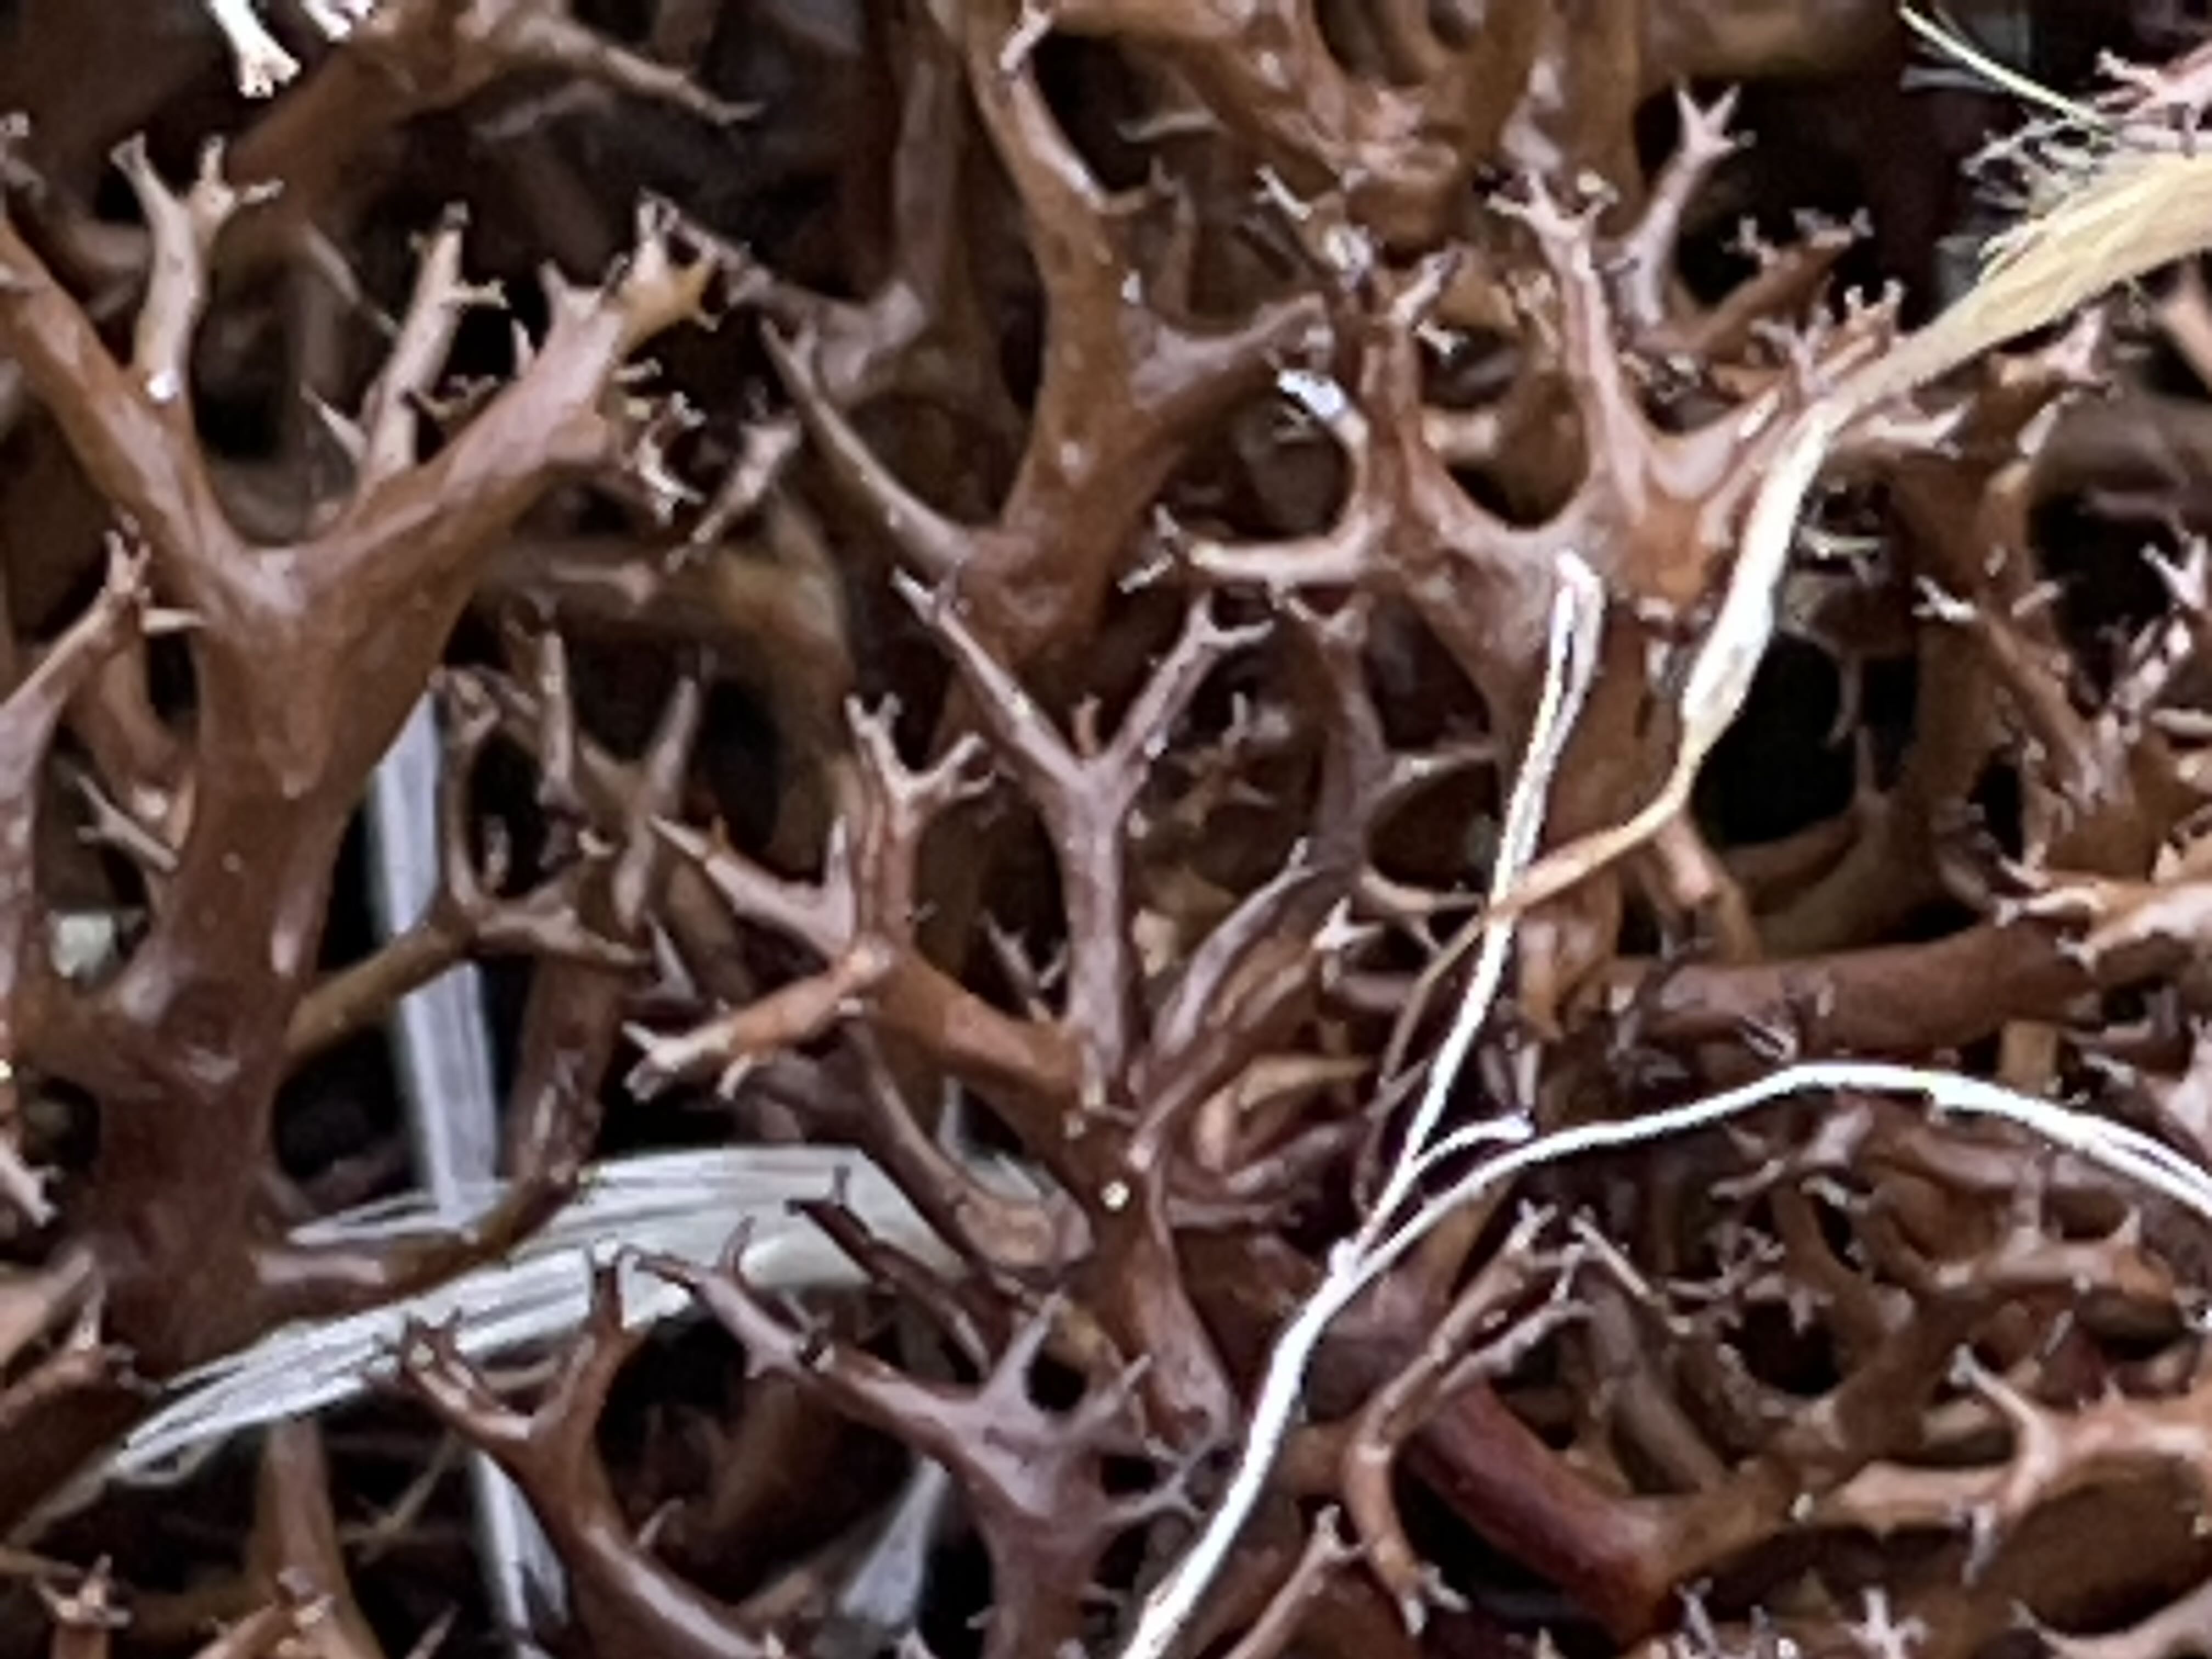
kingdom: Fungi
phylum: Ascomycota
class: Lecanoromycetes
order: Lecanorales
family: Parmeliaceae
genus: Cetraria
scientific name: Cetraria aculeata
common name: grubet tjørnelav
